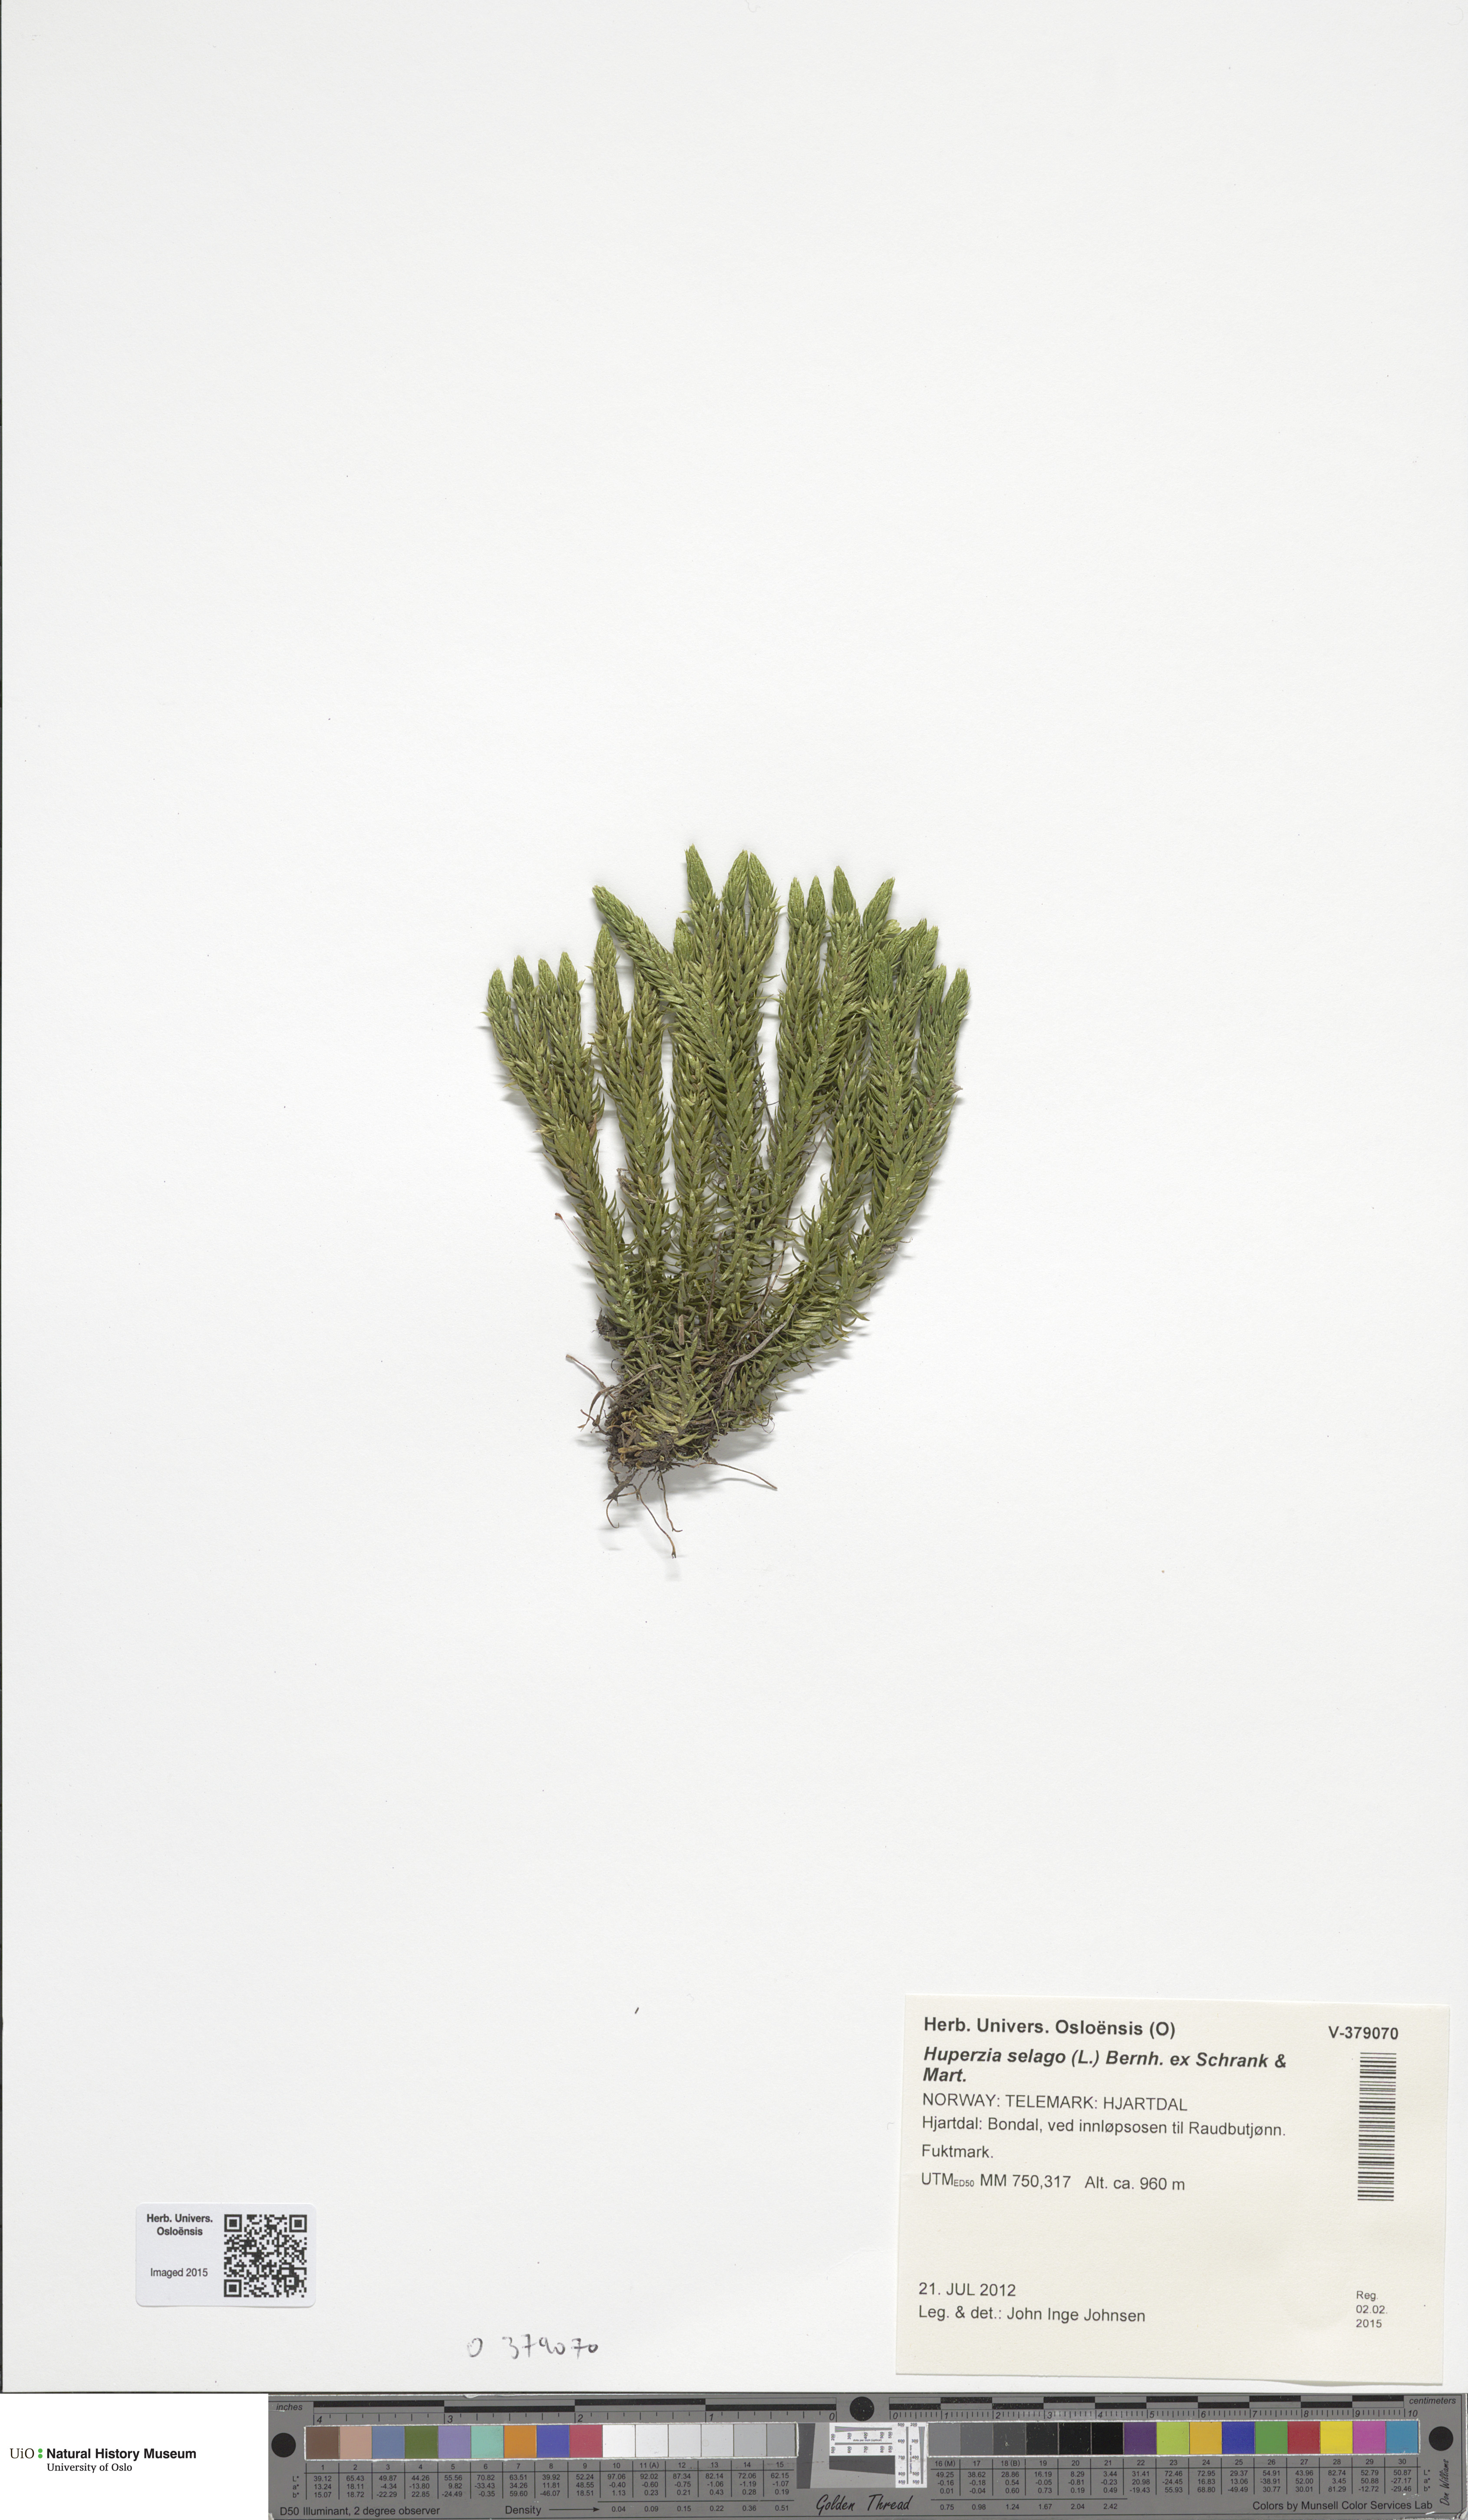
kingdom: Plantae
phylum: Tracheophyta
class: Lycopodiopsida
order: Lycopodiales
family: Lycopodiaceae
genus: Huperzia
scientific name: Huperzia selago
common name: Northern firmoss
